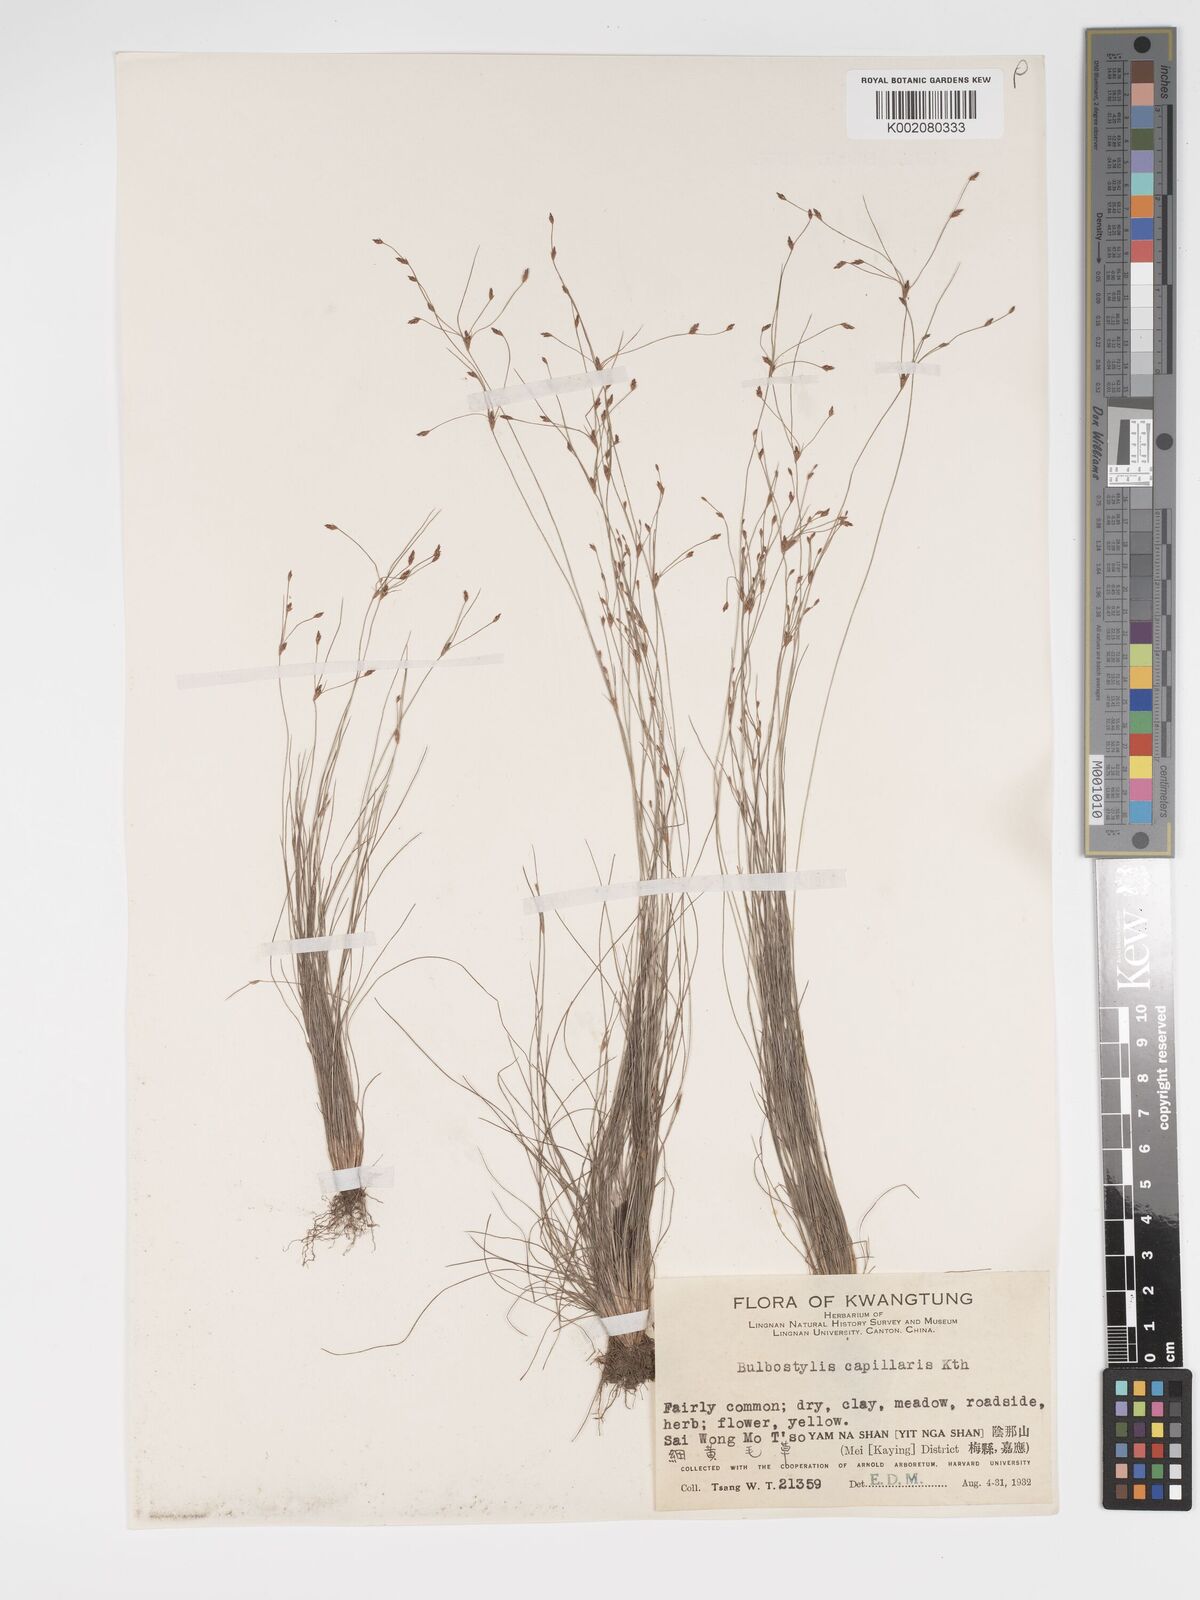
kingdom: Plantae
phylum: Tracheophyta
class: Liliopsida
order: Poales
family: Cyperaceae
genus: Bulbostylis
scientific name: Bulbostylis capillaris
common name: Densetuft hairsedge
